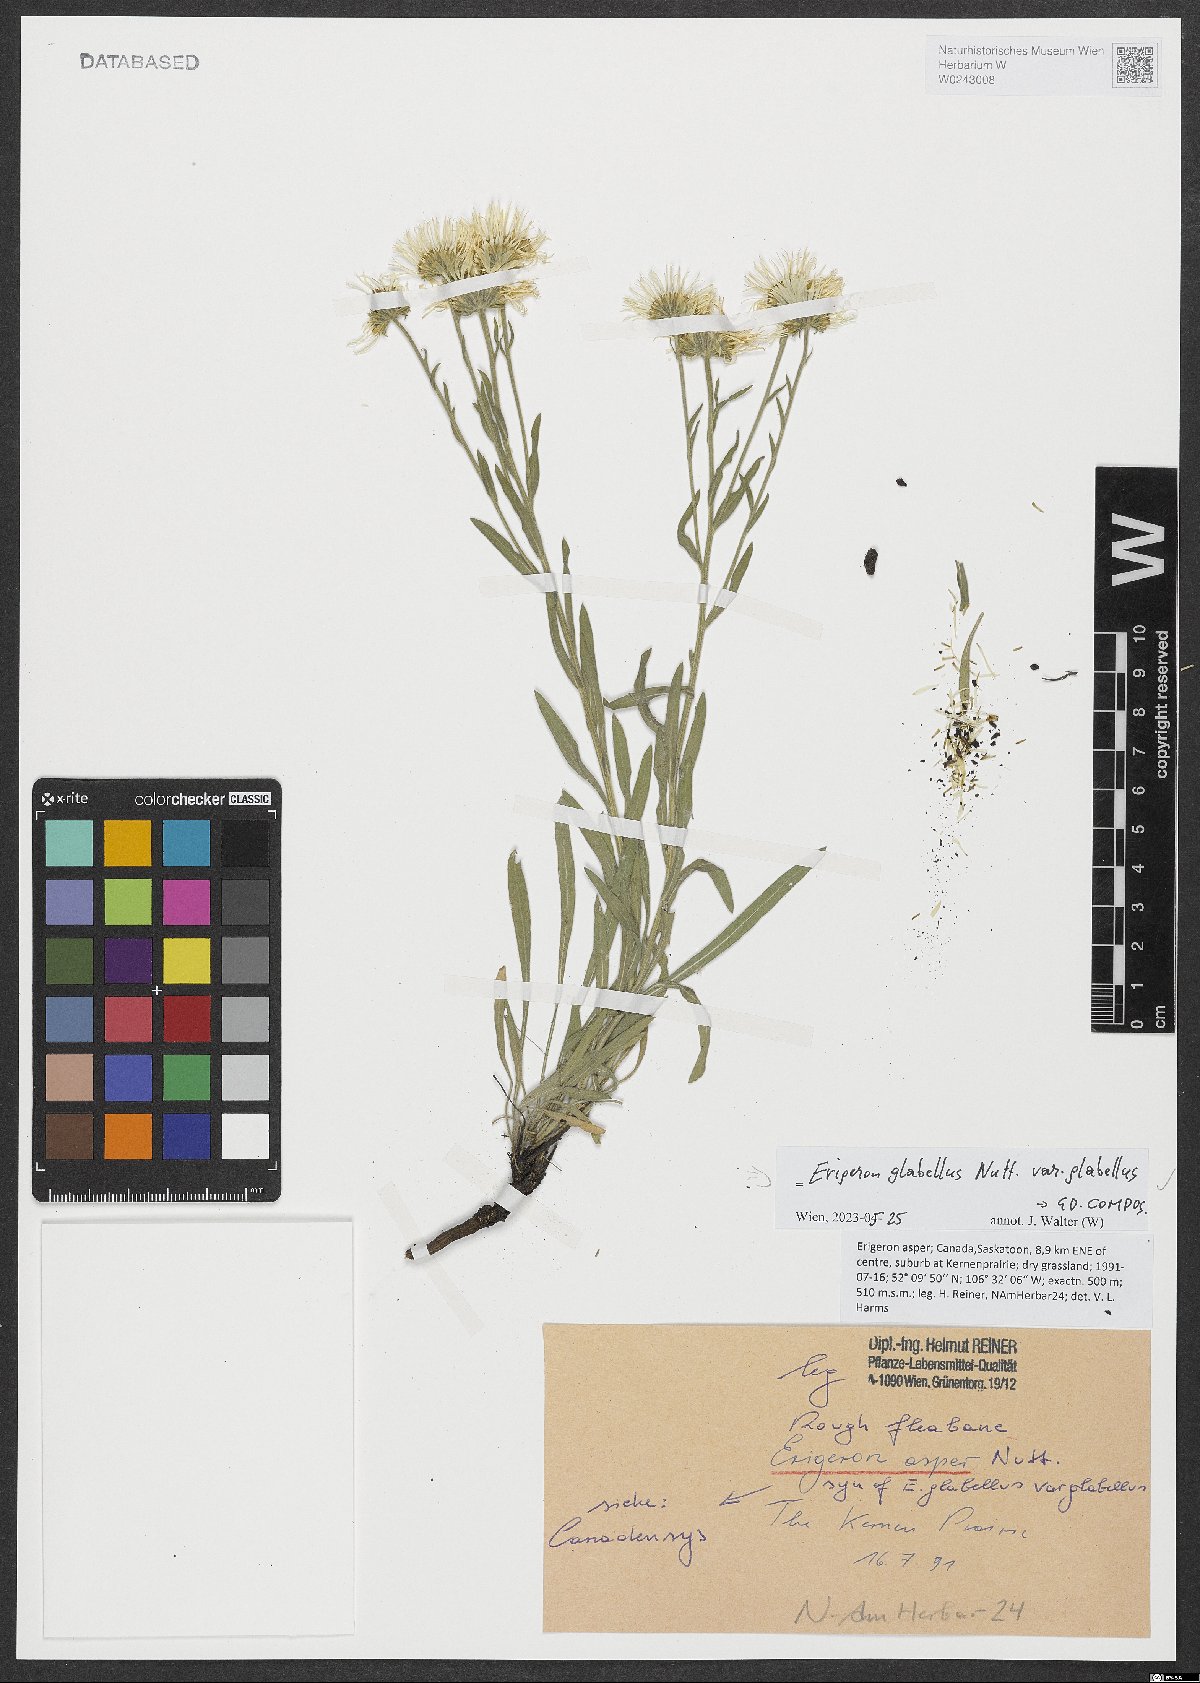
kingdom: Plantae
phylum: Tracheophyta
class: Magnoliopsida
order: Asterales
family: Asteraceae
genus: Erigeron
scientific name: Erigeron glabellus
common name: Smooth fleabane
